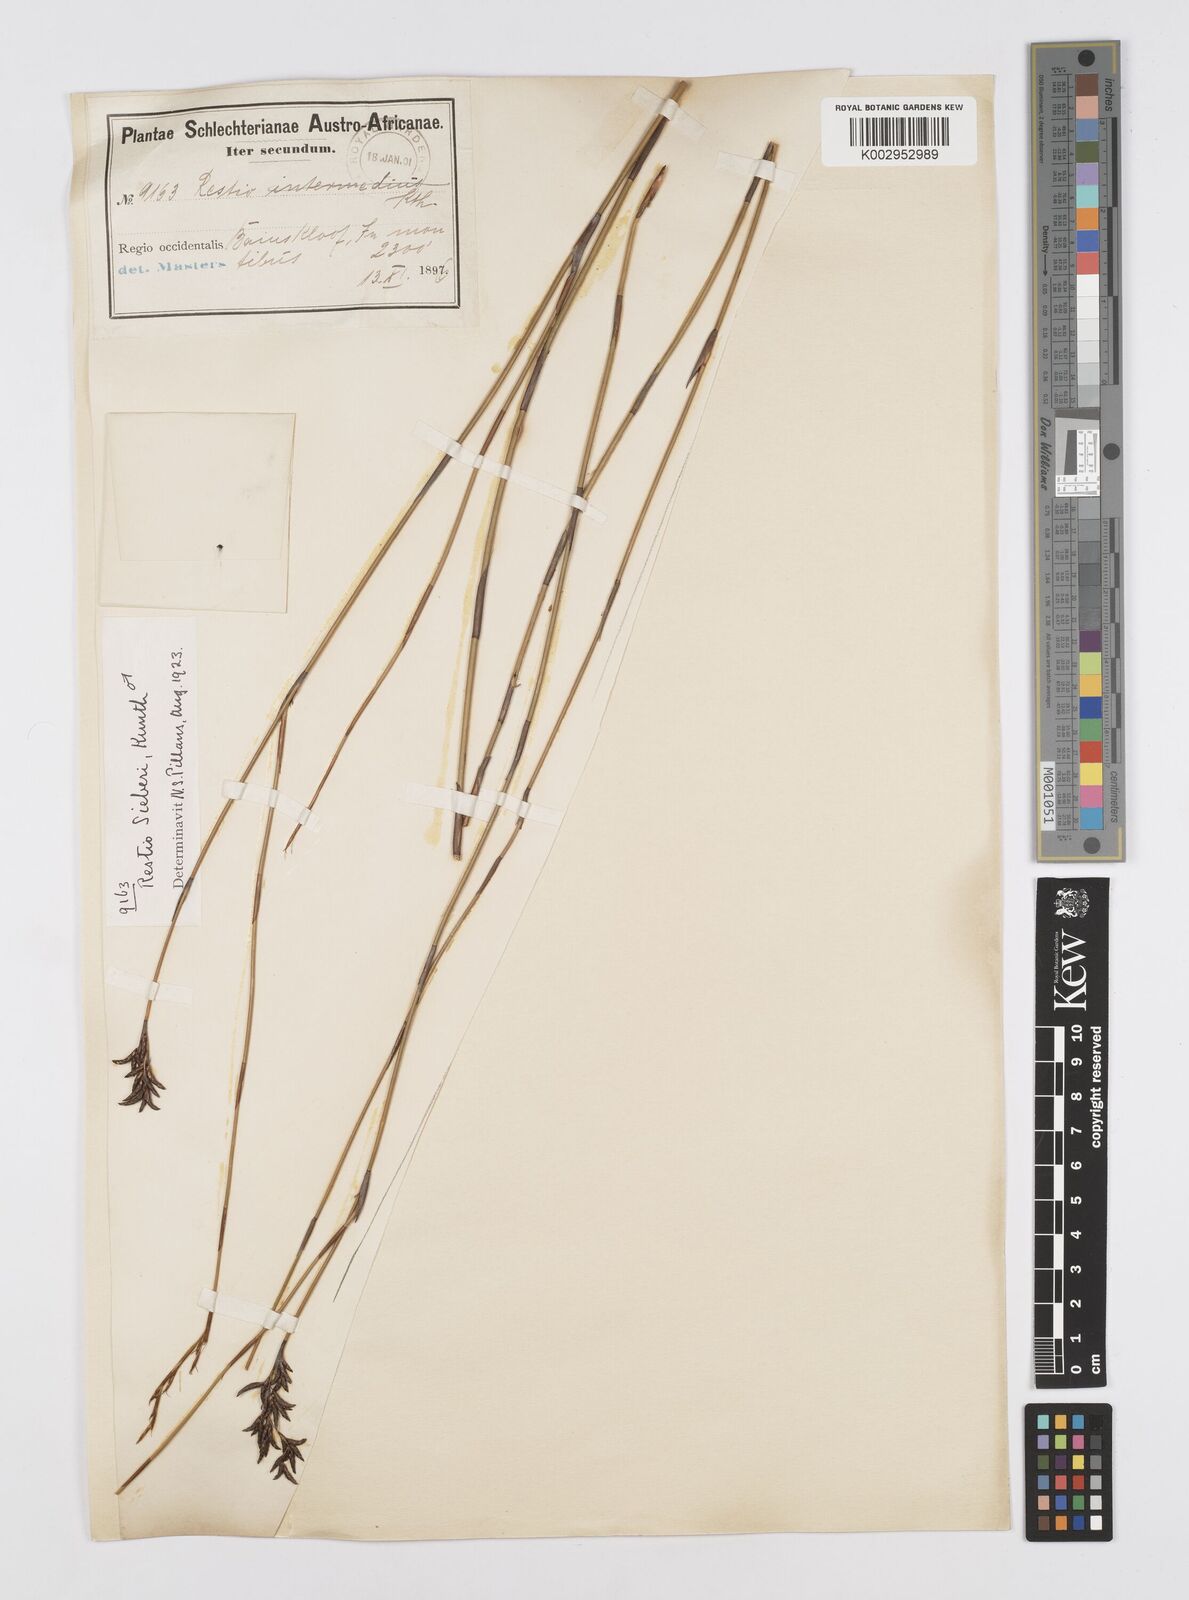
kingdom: Plantae
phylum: Tracheophyta
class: Liliopsida
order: Poales
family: Restionaceae
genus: Restio
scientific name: Restio sieberi
